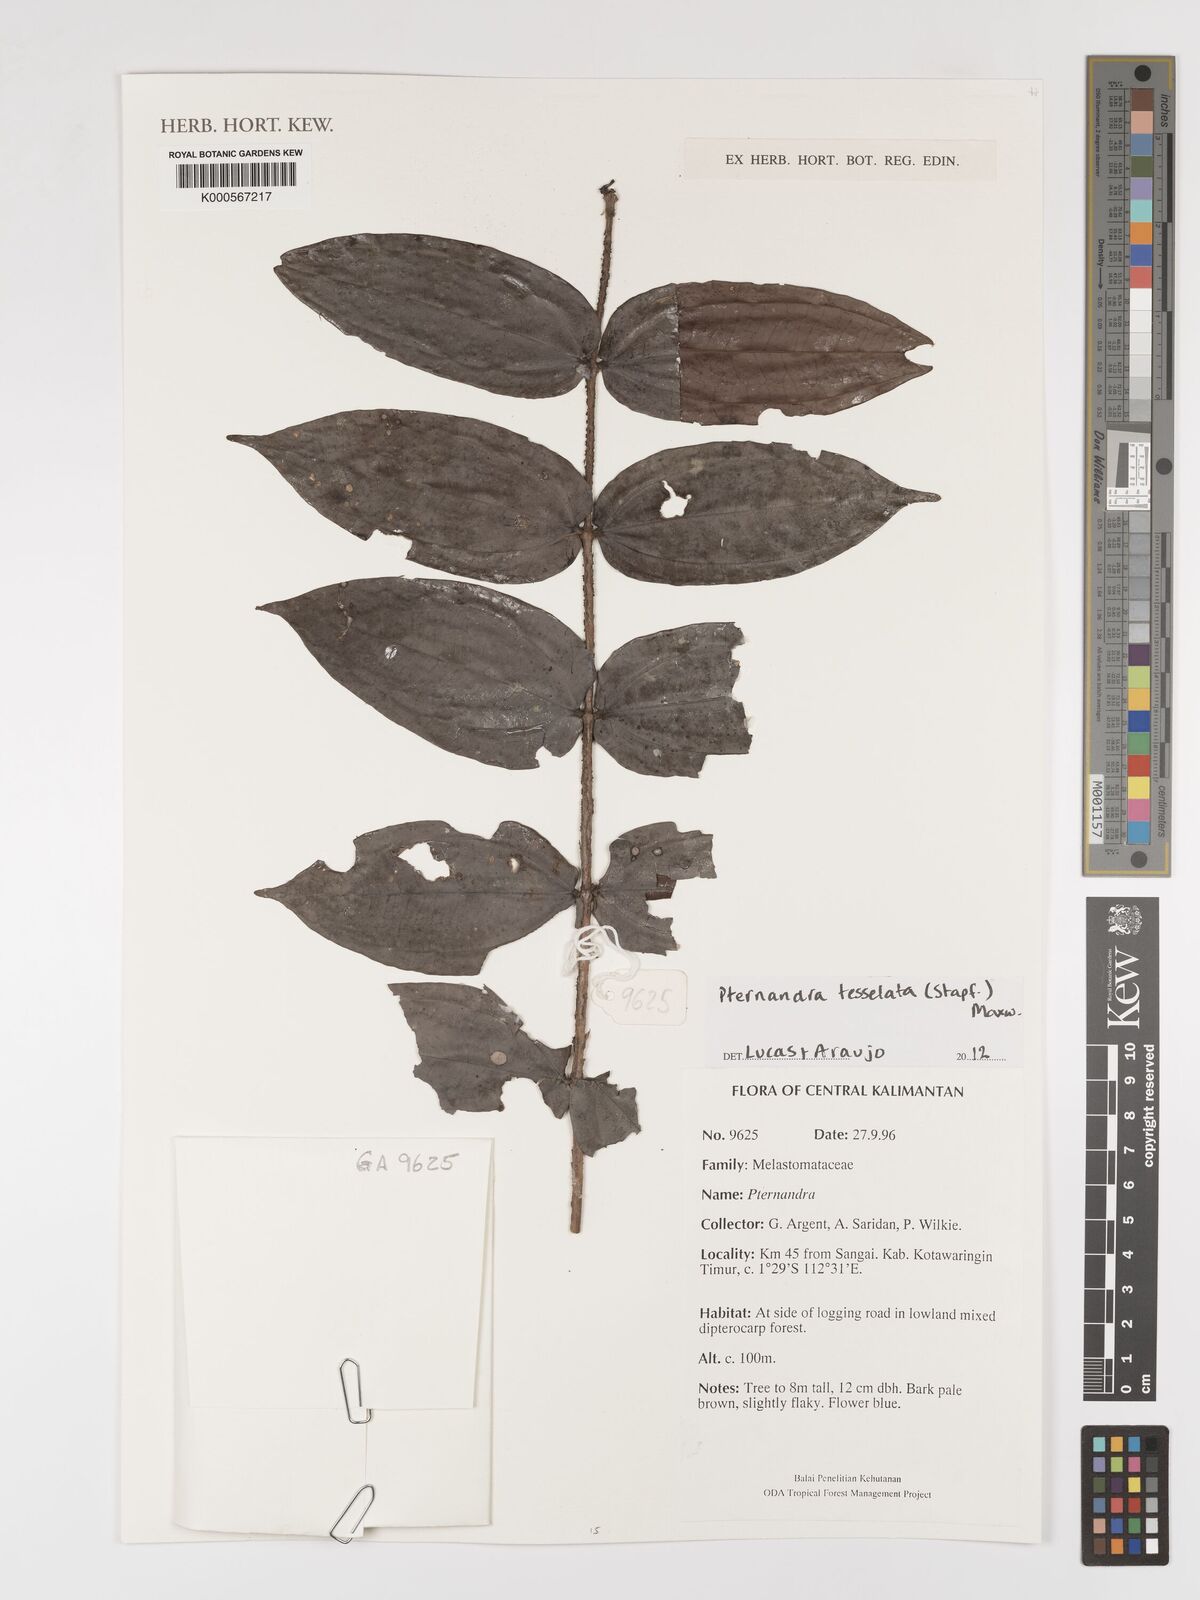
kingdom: Plantae
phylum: Tracheophyta
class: Magnoliopsida
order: Myrtales
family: Melastomataceae
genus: Pternandra
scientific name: Pternandra
